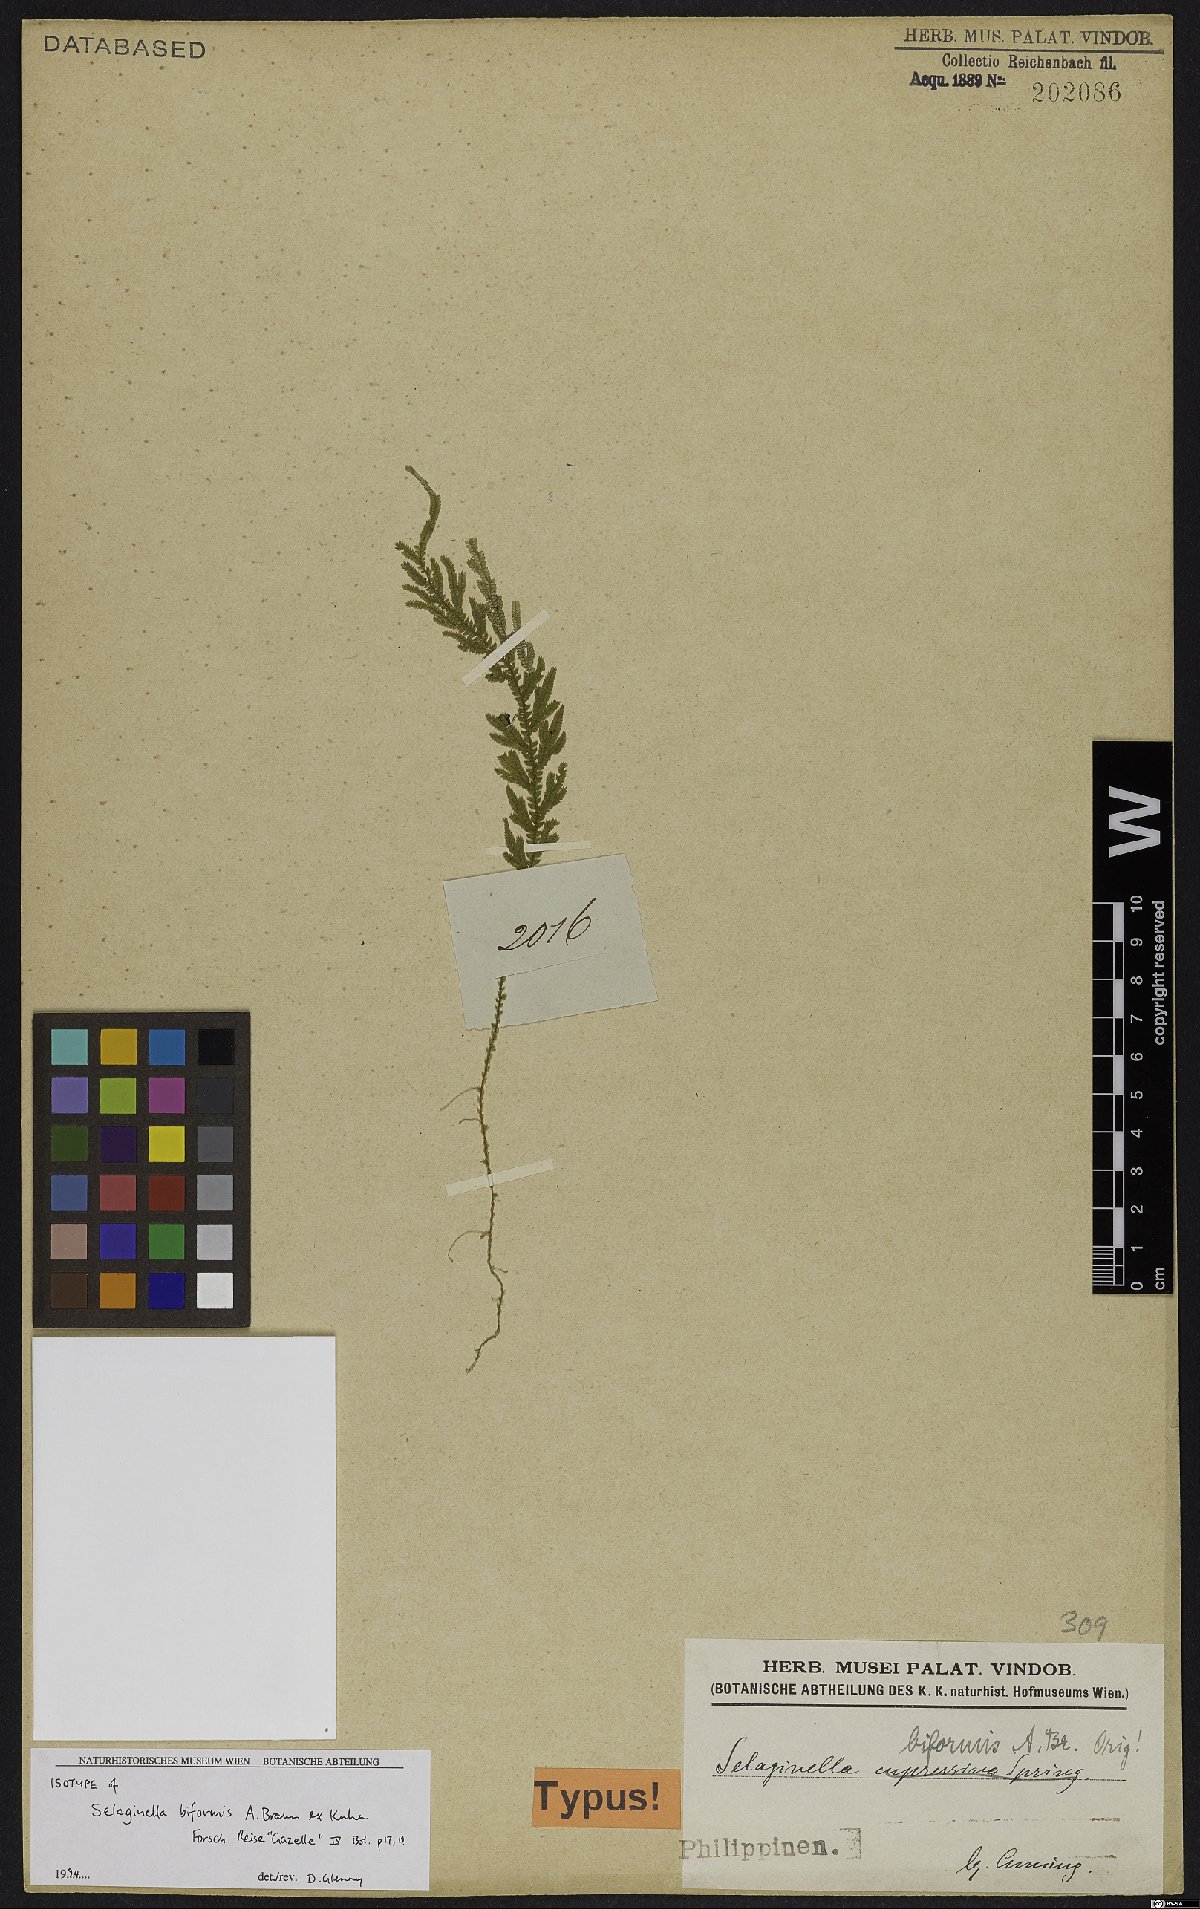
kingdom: Plantae
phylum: Tracheophyta
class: Lycopodiopsida
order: Selaginellales
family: Selaginellaceae
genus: Selaginella
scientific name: Selaginella biformis
